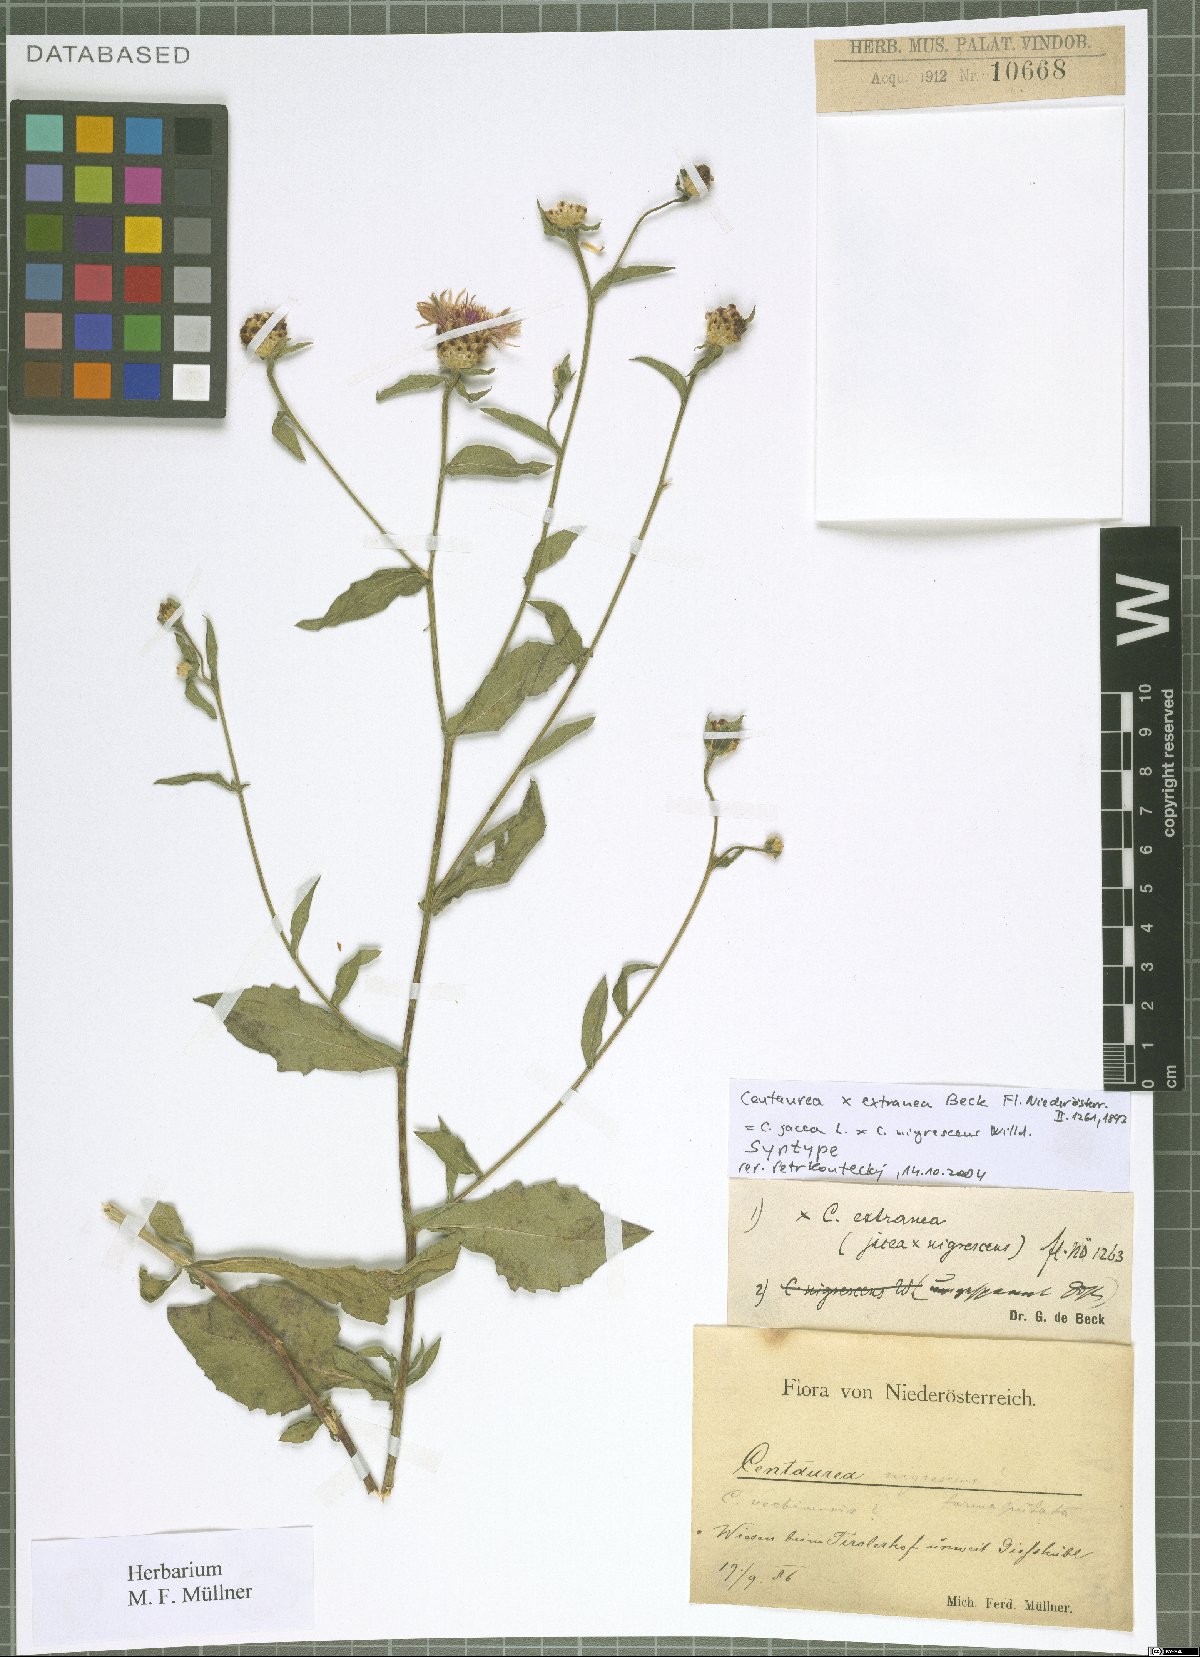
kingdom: Plantae
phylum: Tracheophyta
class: Magnoliopsida
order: Asterales
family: Asteraceae
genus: Centaurea
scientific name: Centaurea extranea
